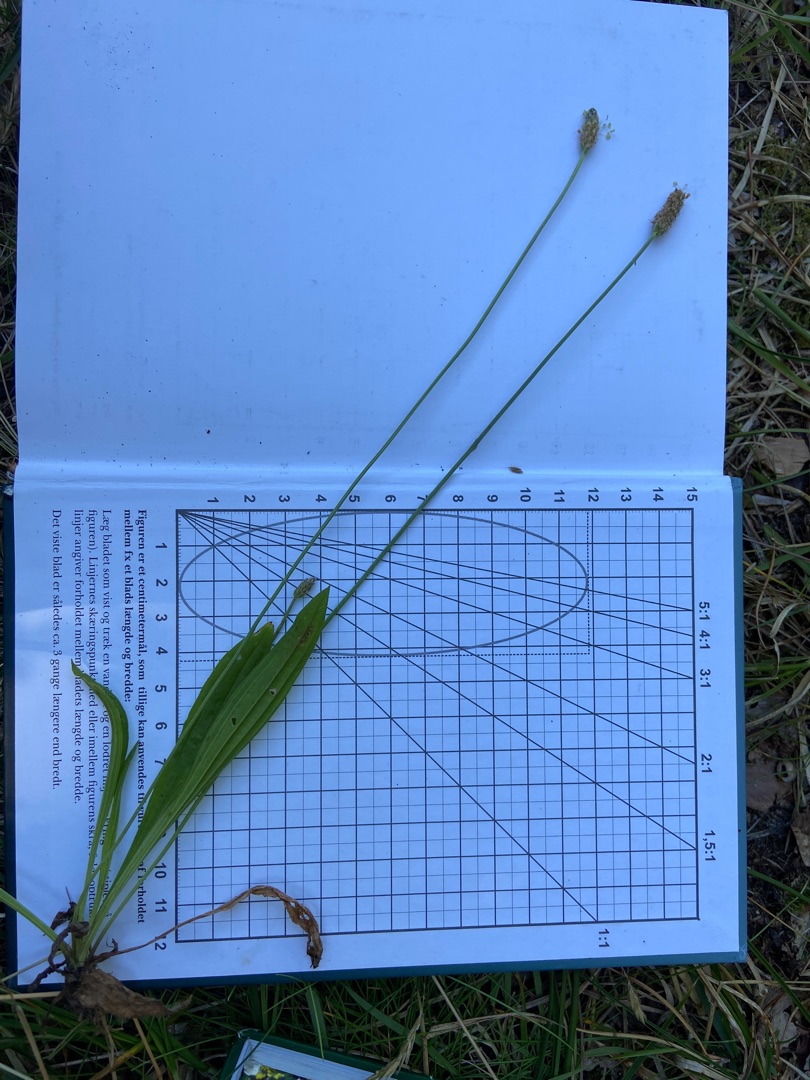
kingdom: Plantae
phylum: Tracheophyta
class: Magnoliopsida
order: Lamiales
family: Plantaginaceae
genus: Plantago
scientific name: Plantago lanceolata
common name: Lancet-vejbred
